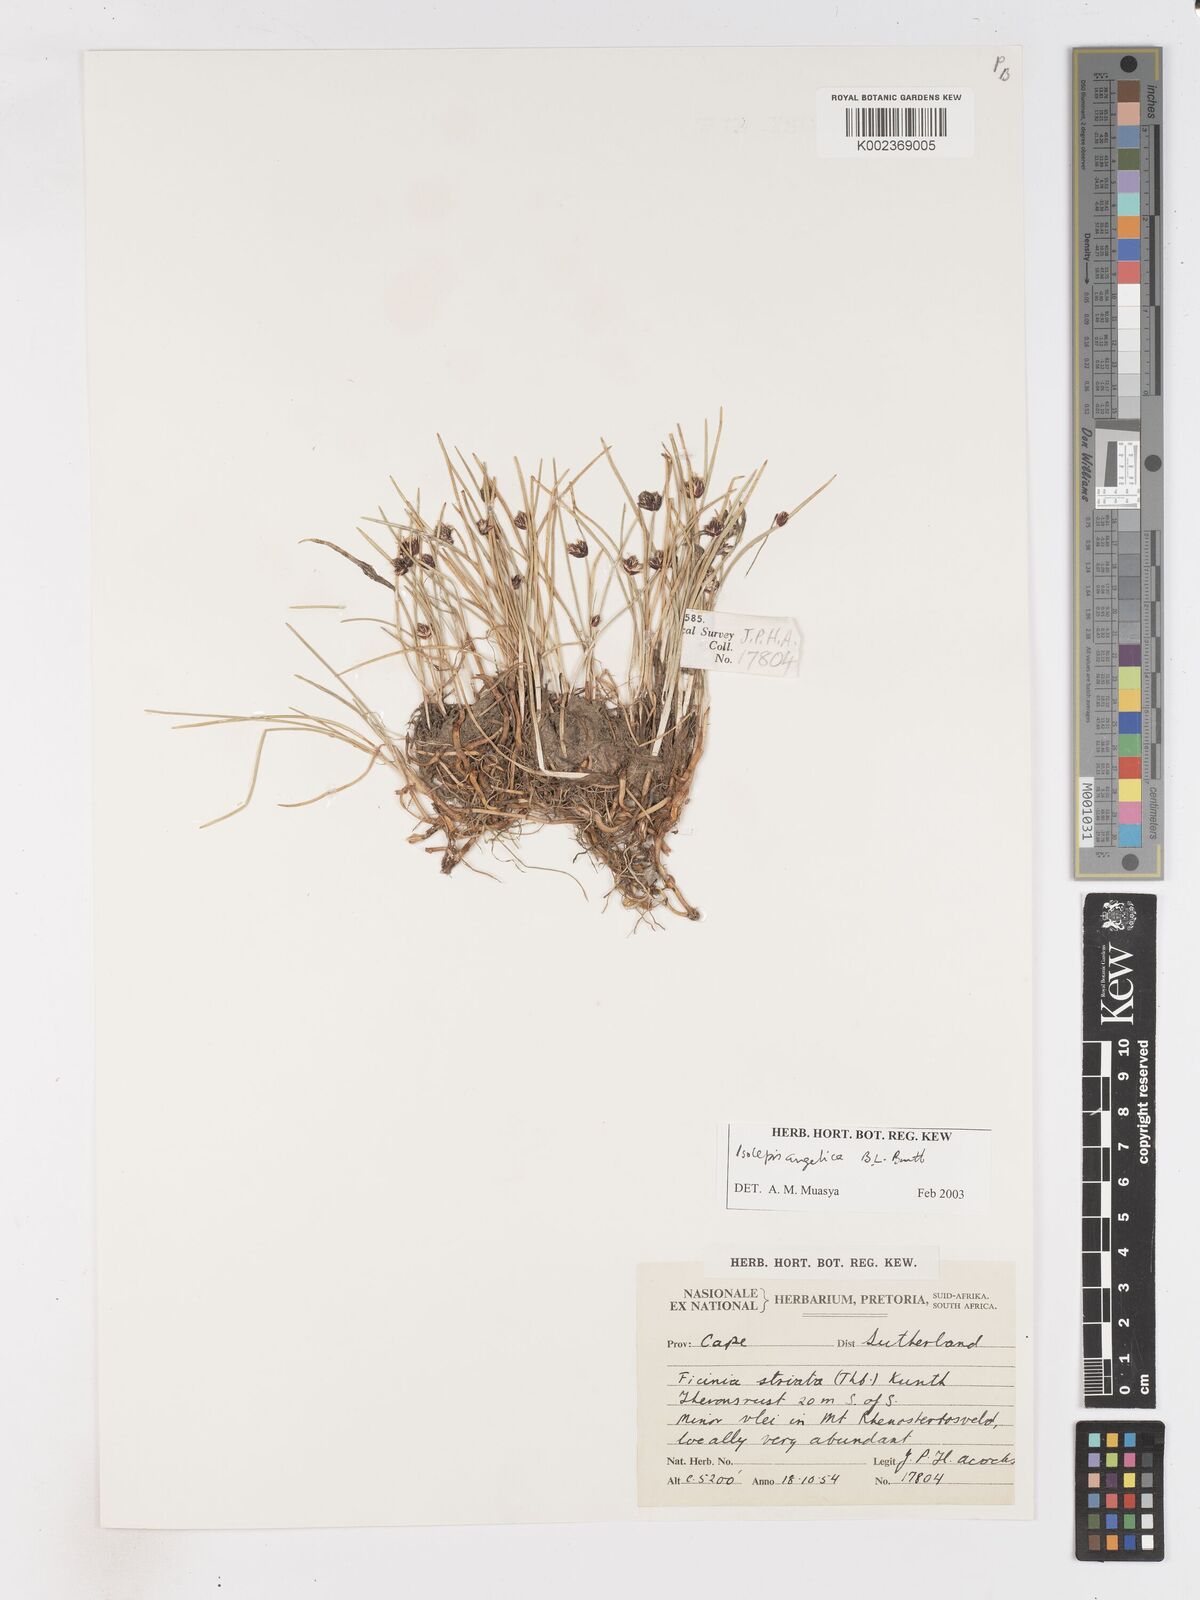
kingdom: Plantae
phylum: Tracheophyta
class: Liliopsida
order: Poales
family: Cyperaceae
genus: Isolepis
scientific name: Isolepis angelica
